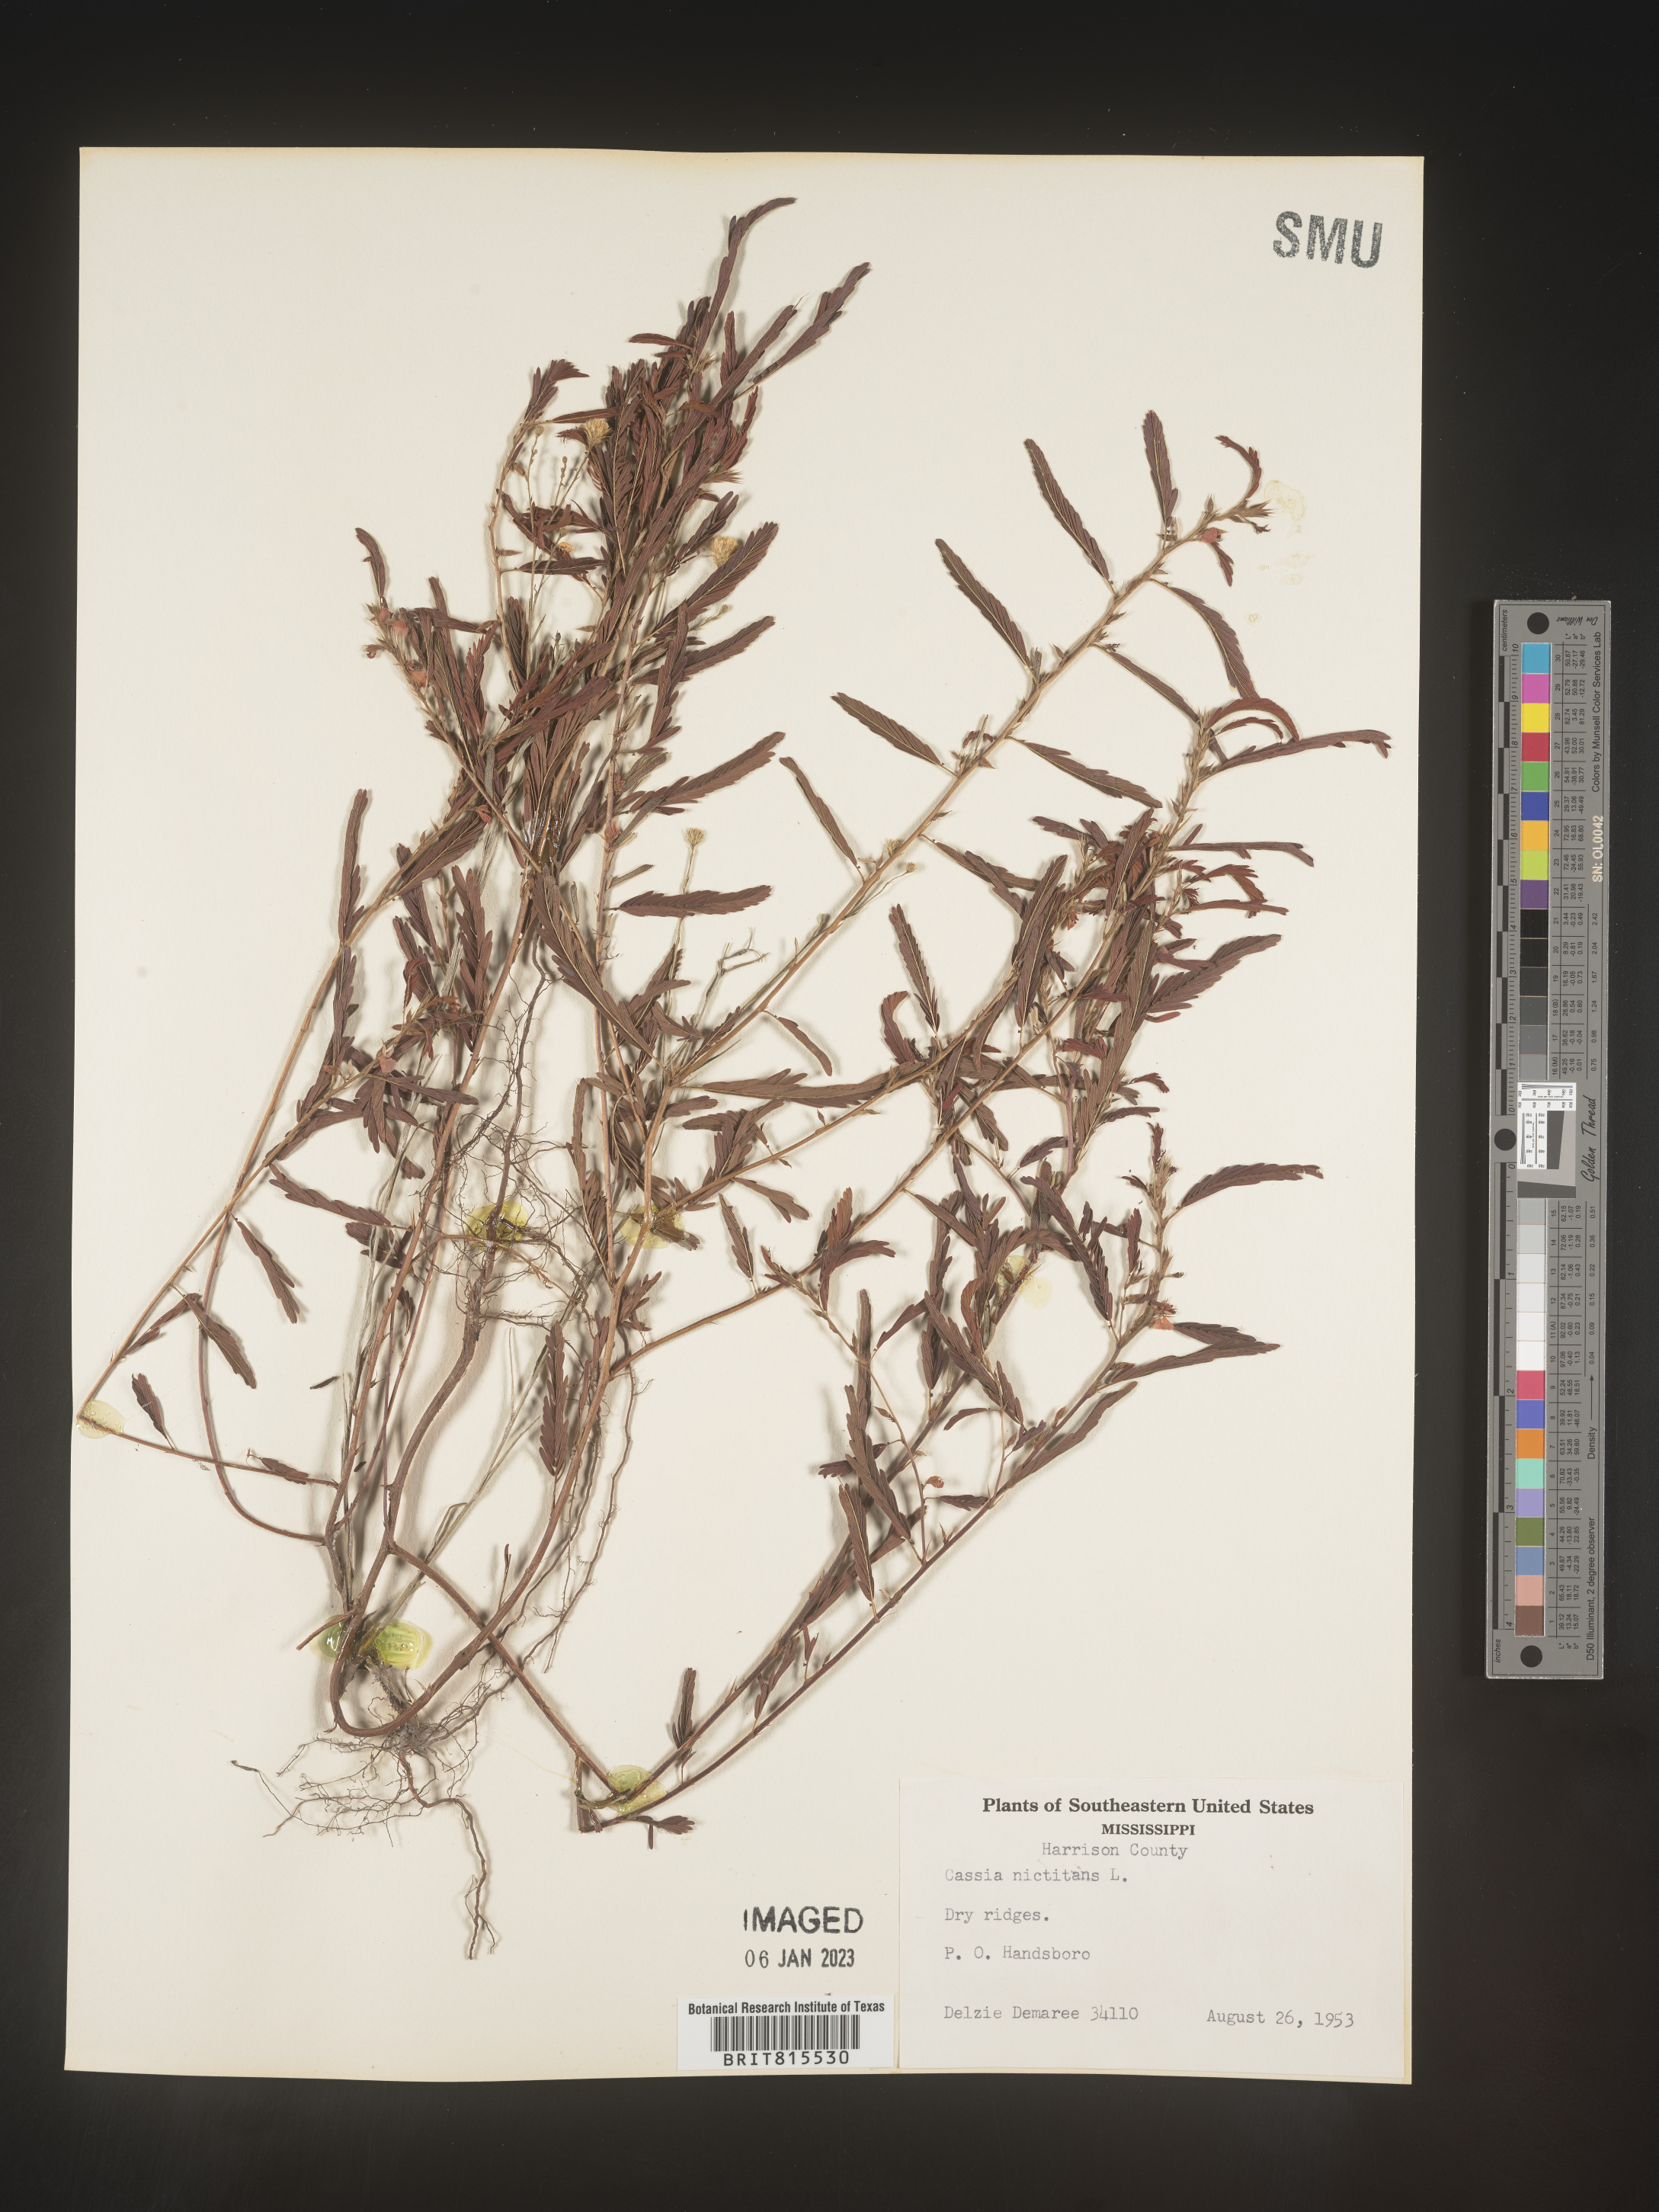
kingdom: Plantae
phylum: Tracheophyta
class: Magnoliopsida
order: Fabales
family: Fabaceae
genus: Chamaecrista
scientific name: Chamaecrista nictitans
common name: Sensitive cassia
